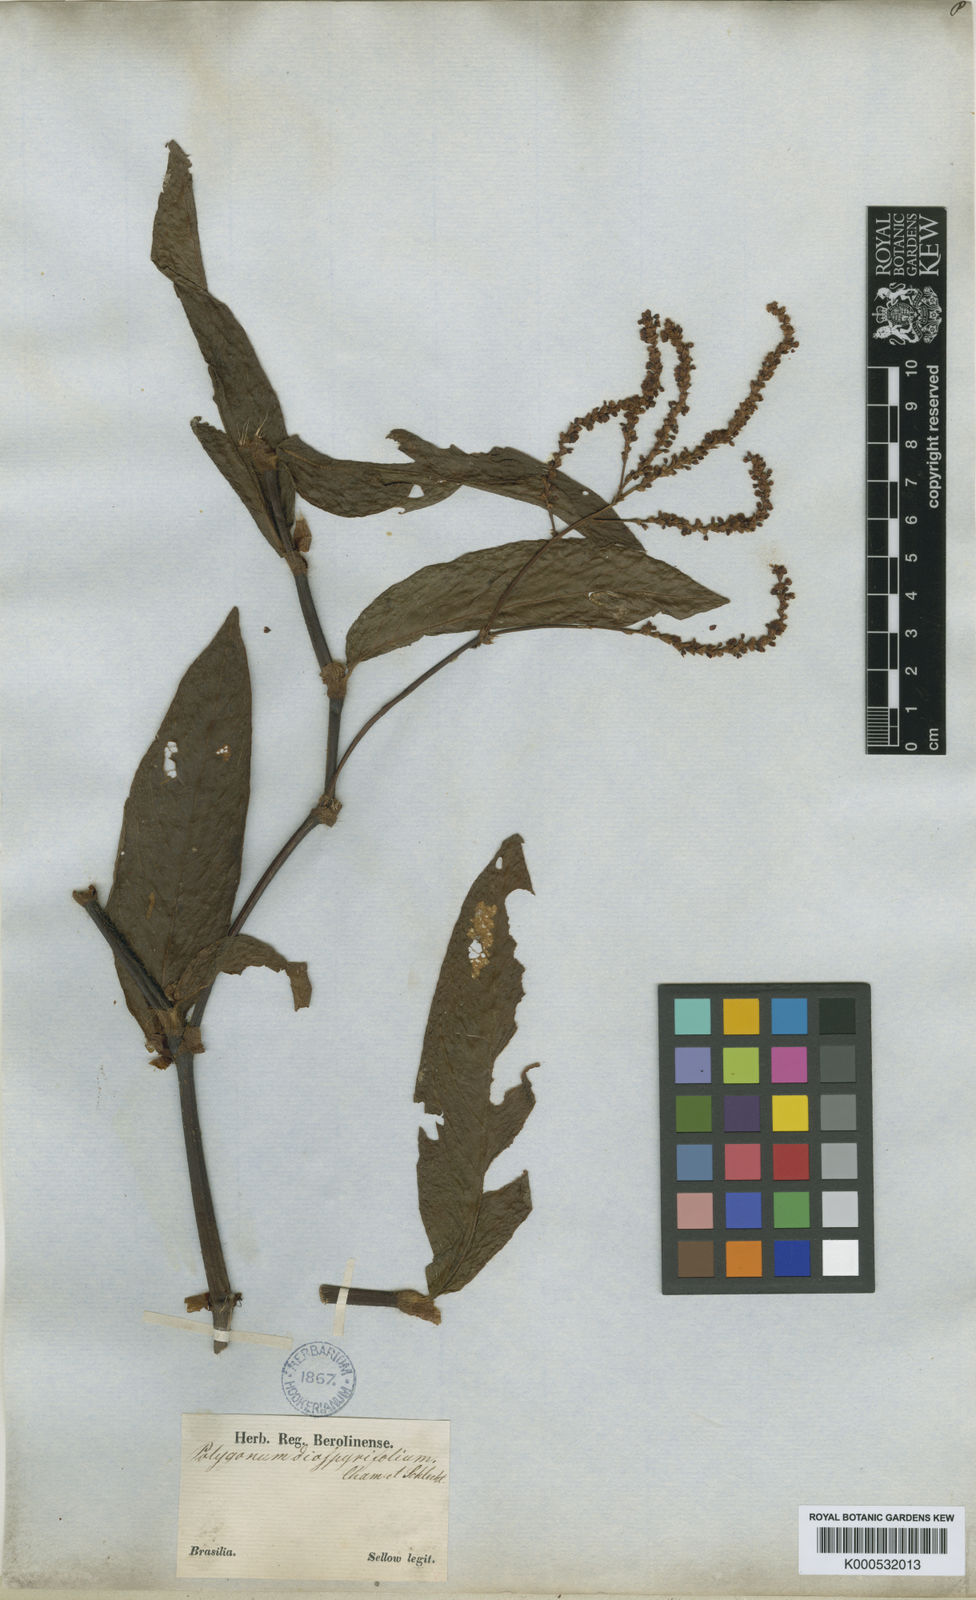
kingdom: Plantae
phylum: Tracheophyta
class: Magnoliopsida
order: Caryophyllales
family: Polygonaceae
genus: Persicaria
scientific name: Persicaria diospyrifolia
